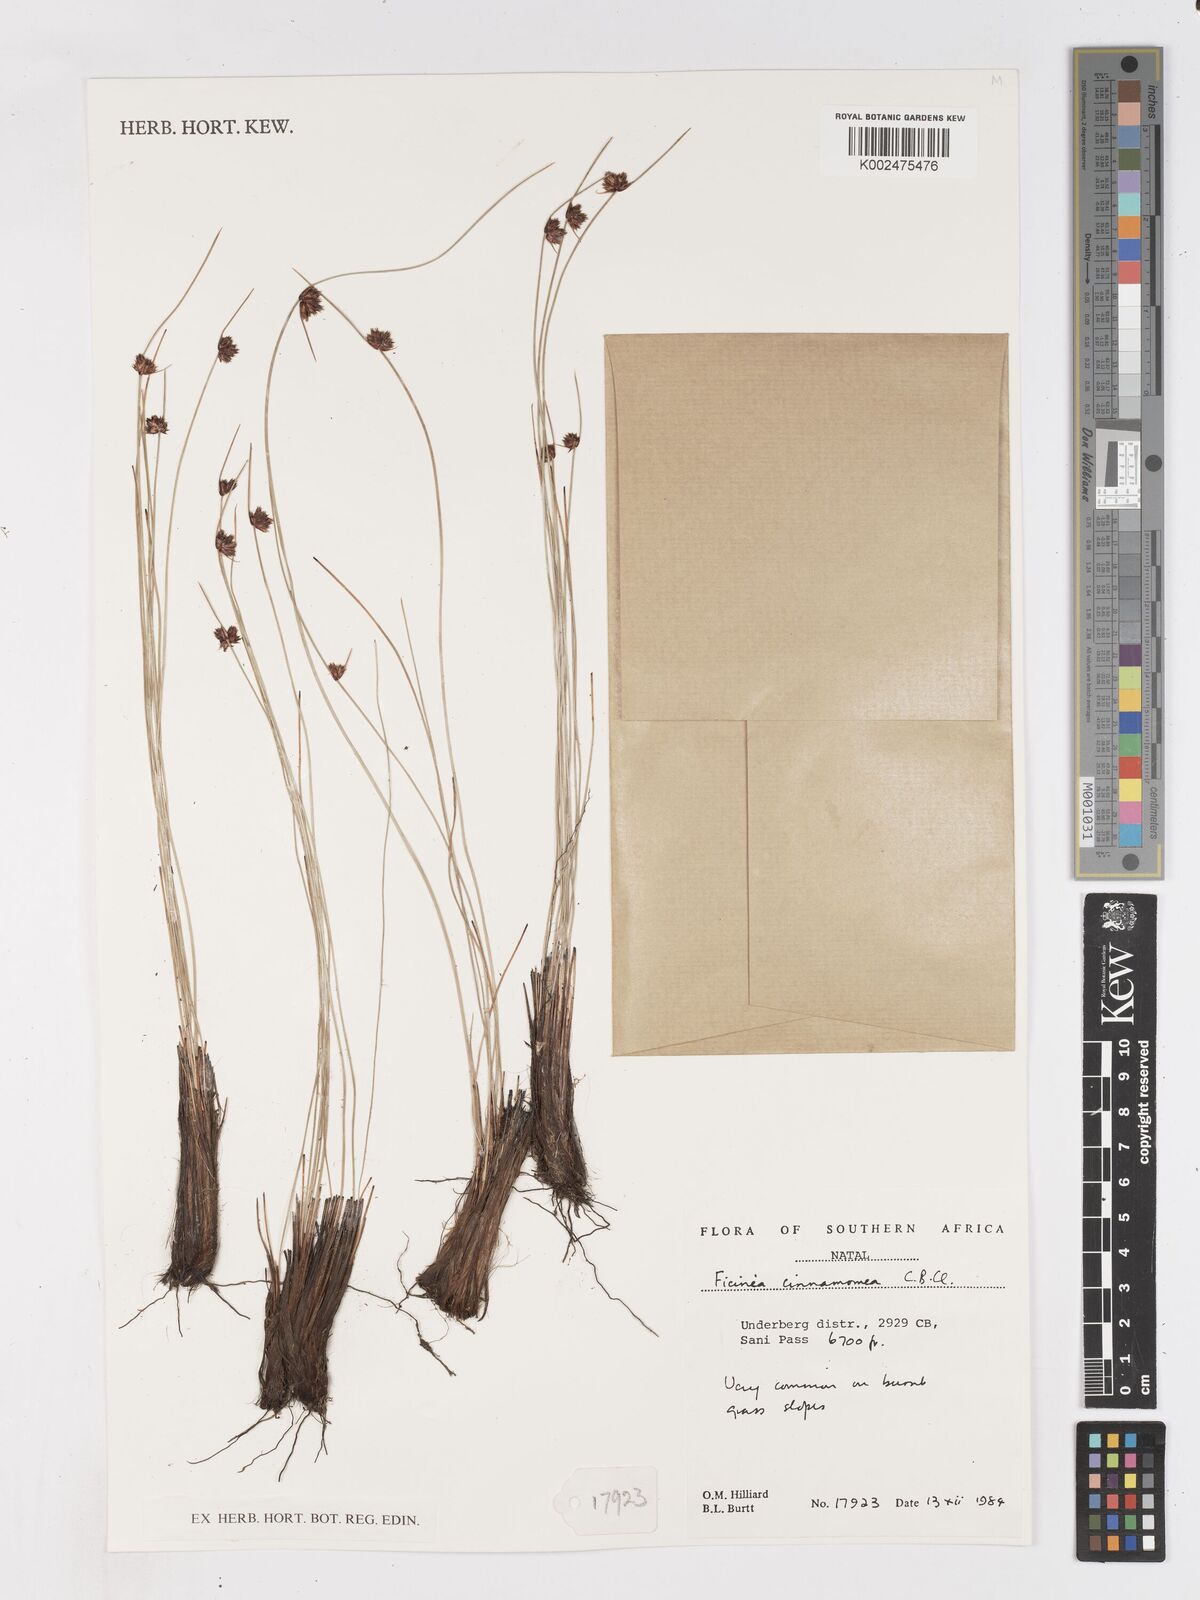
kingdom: Plantae
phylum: Tracheophyta
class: Liliopsida
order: Poales
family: Cyperaceae
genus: Ficinia
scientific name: Ficinia cinnamomea
